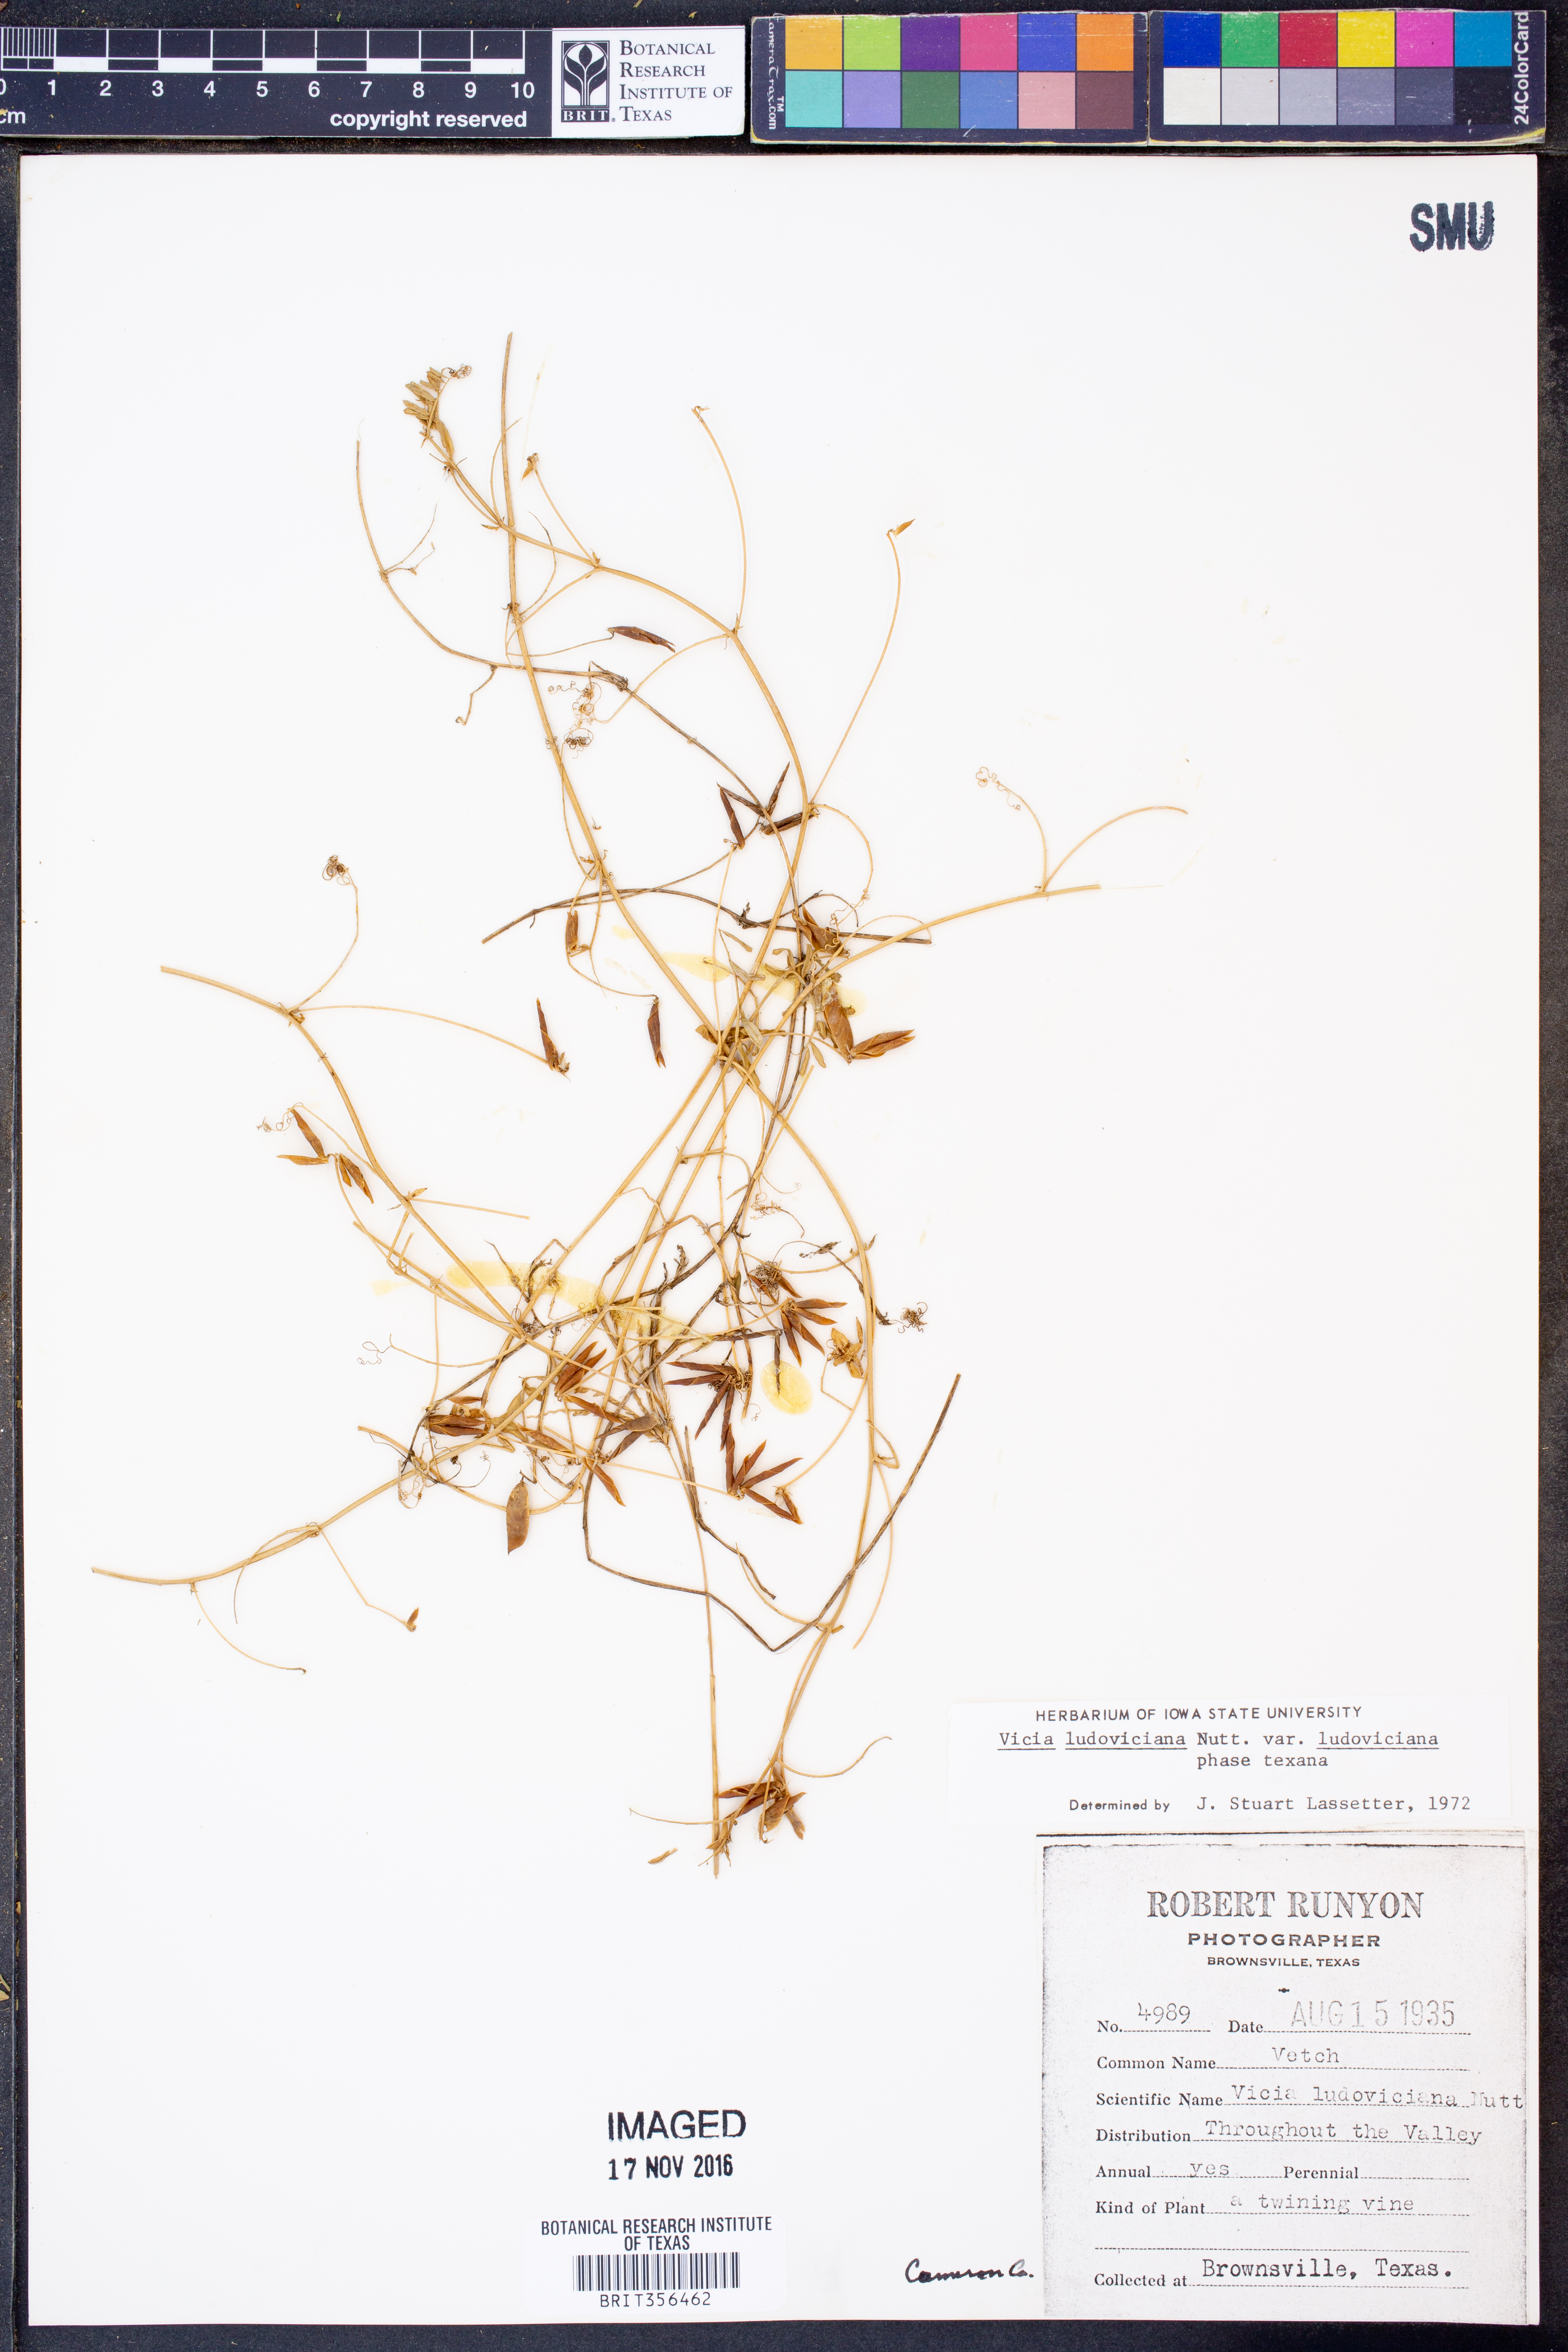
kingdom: Plantae
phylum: Tracheophyta
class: Magnoliopsida
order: Fabales
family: Fabaceae
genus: Vicia
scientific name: Vicia ludoviciana
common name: Louisiana vetch
